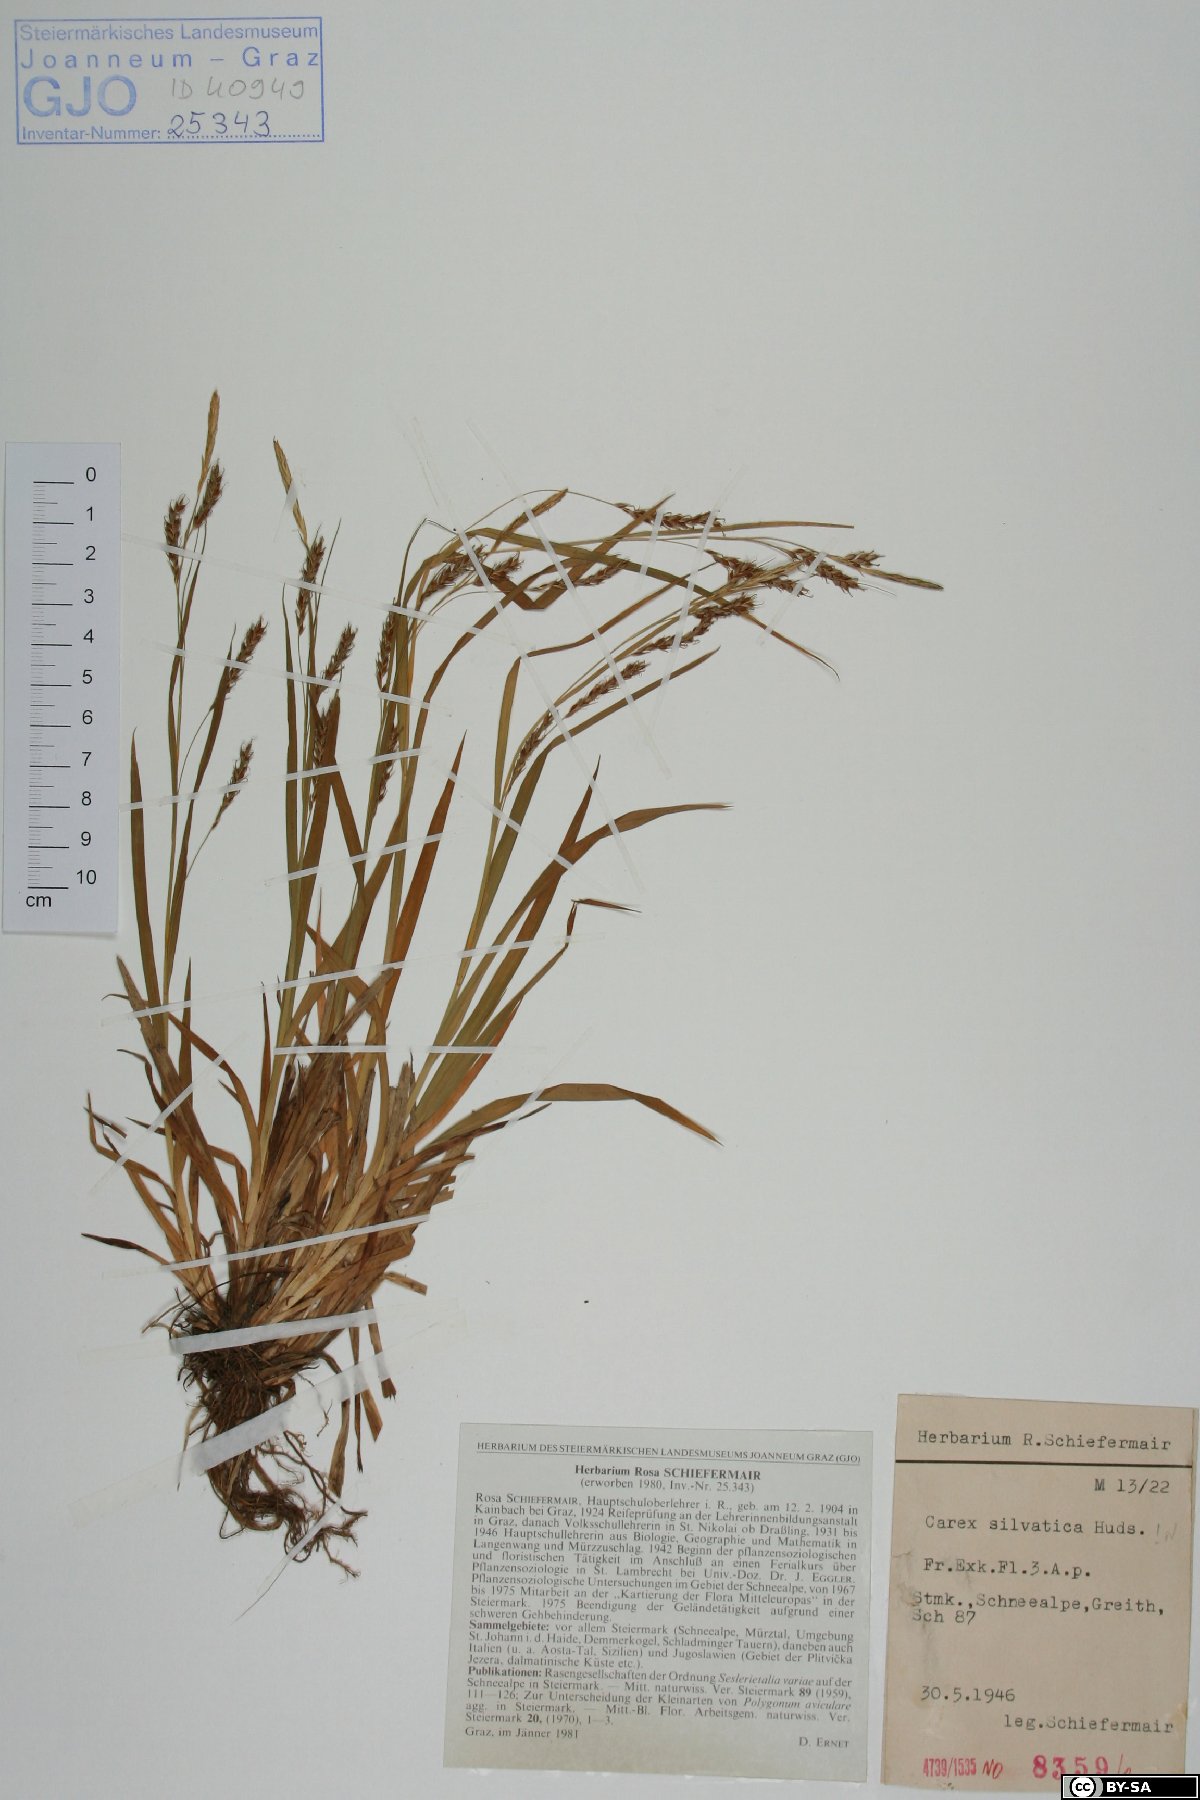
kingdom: Plantae
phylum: Tracheophyta
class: Liliopsida
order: Poales
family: Cyperaceae
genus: Carex
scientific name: Carex sylvatica
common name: Wood-sedge
